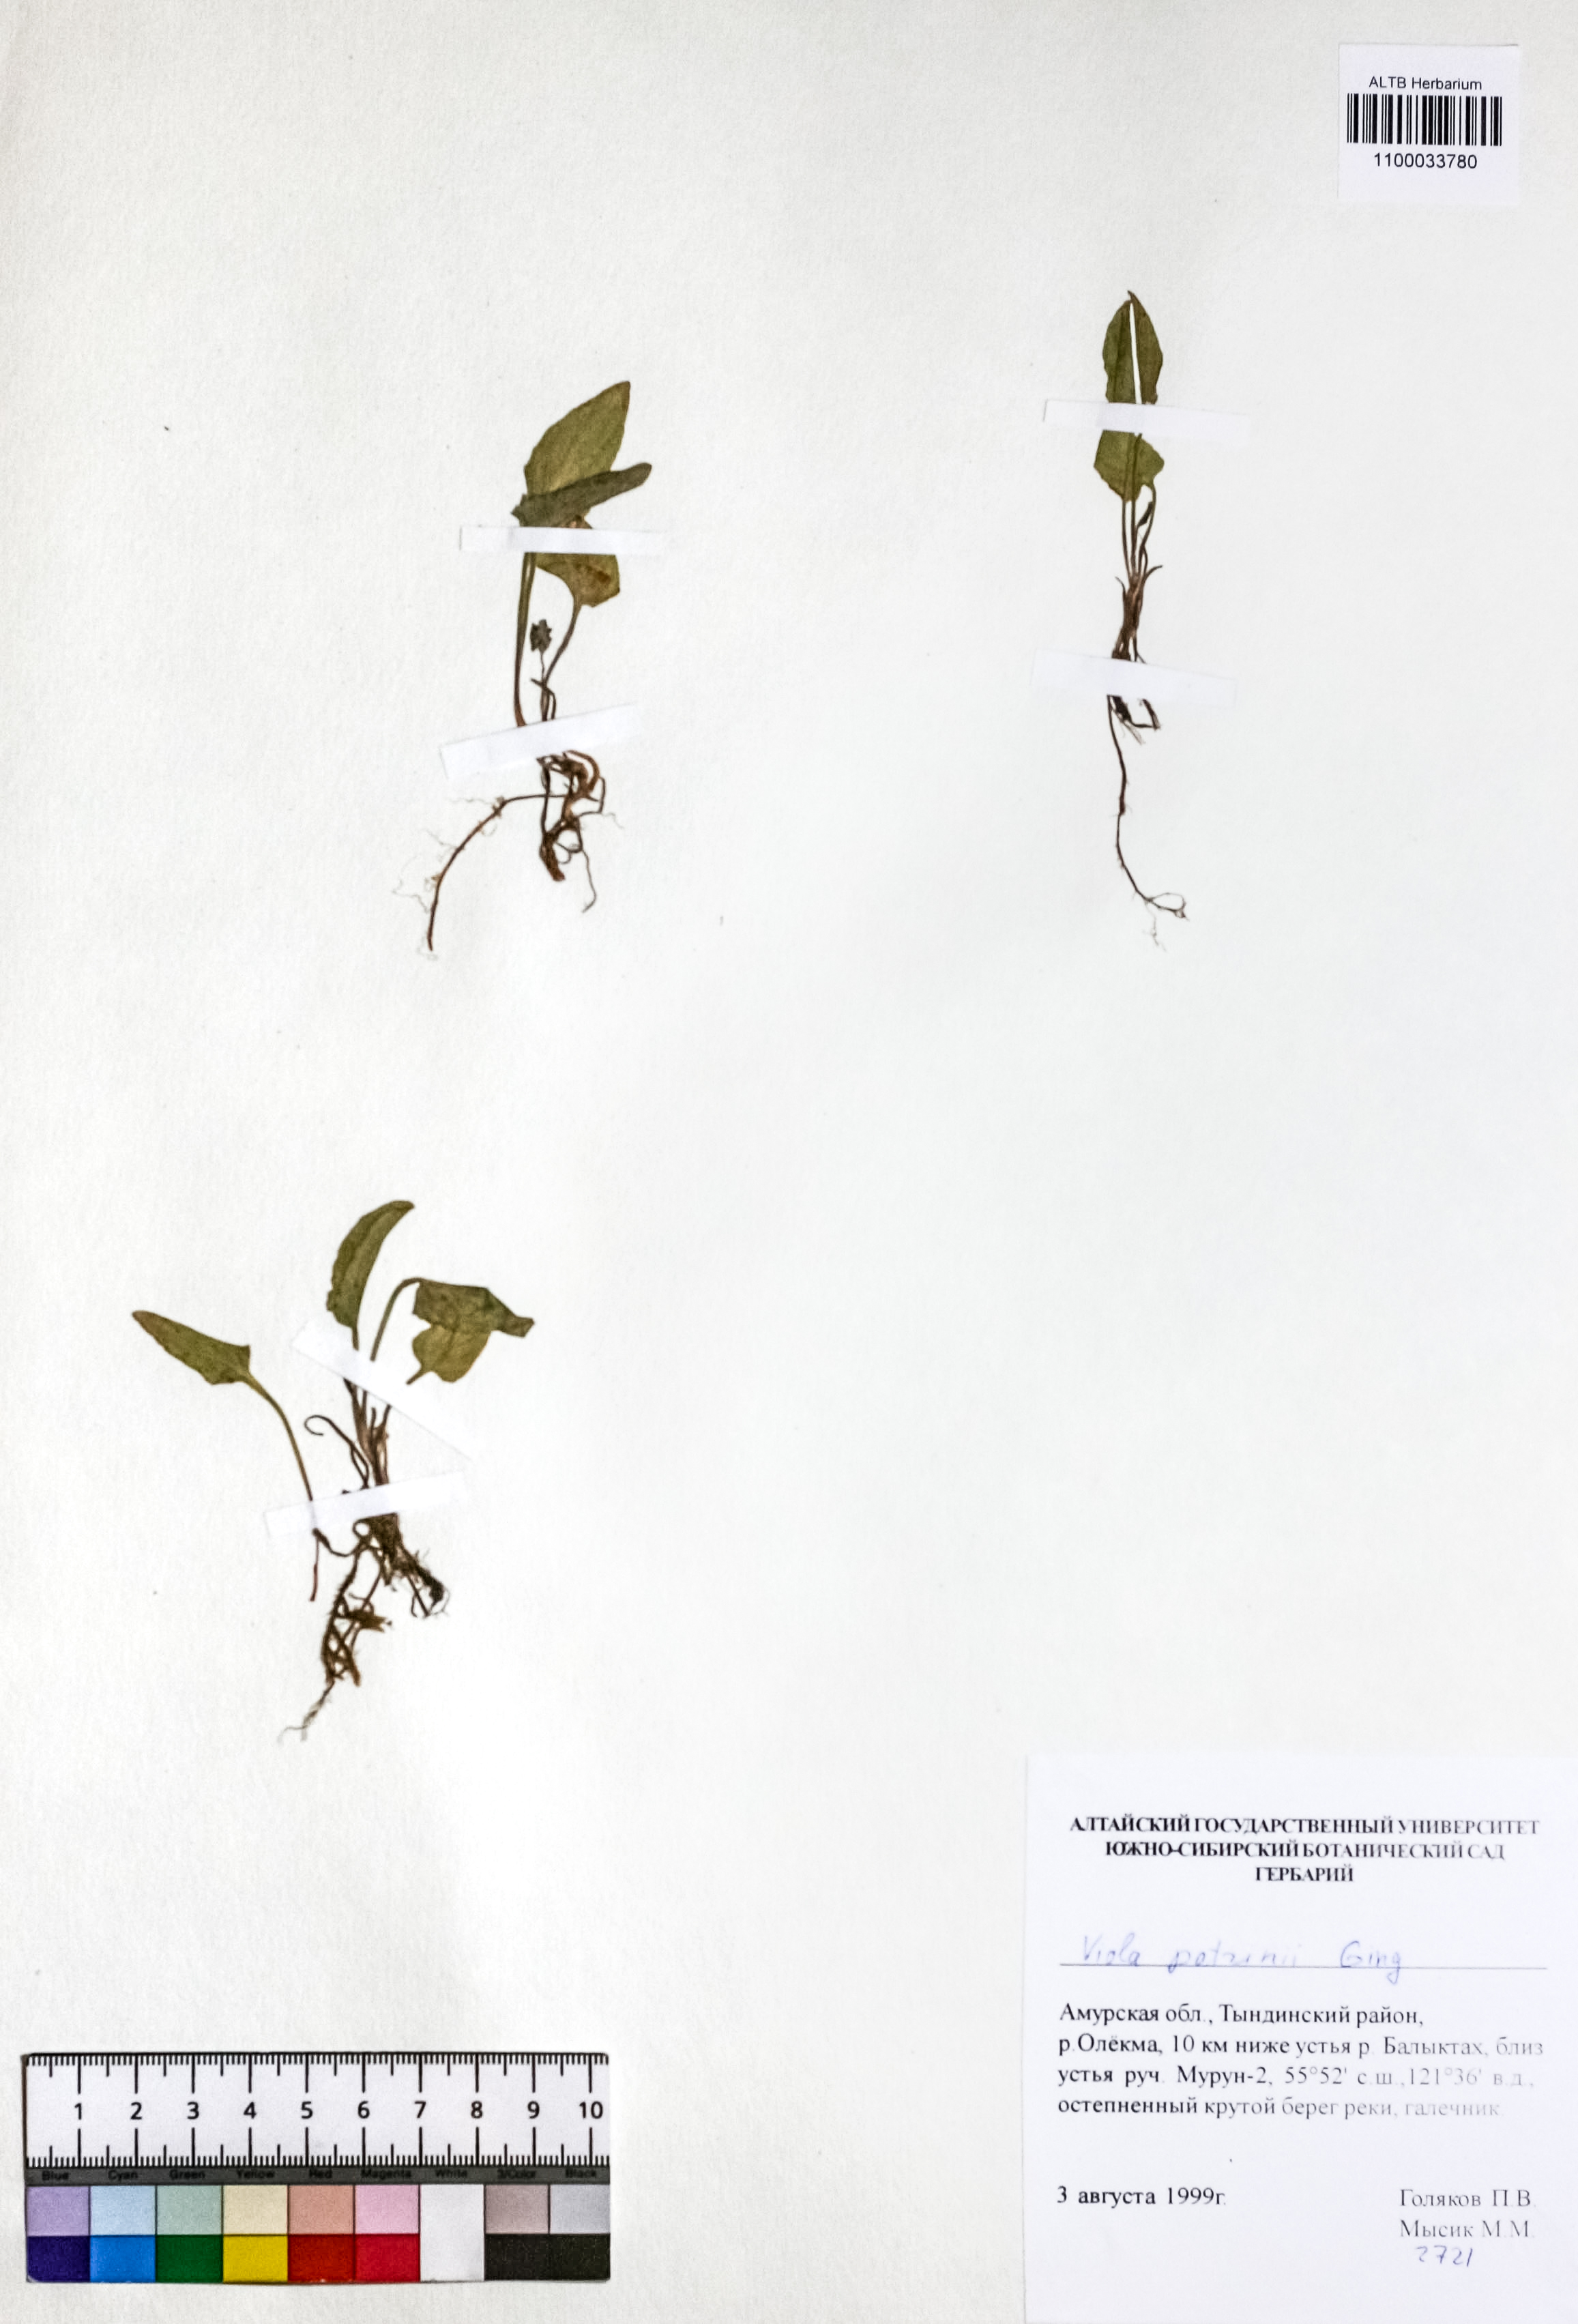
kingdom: Plantae
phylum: Tracheophyta
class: Magnoliopsida
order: Malpighiales
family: Violaceae
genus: Viola
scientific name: Viola patrinii
